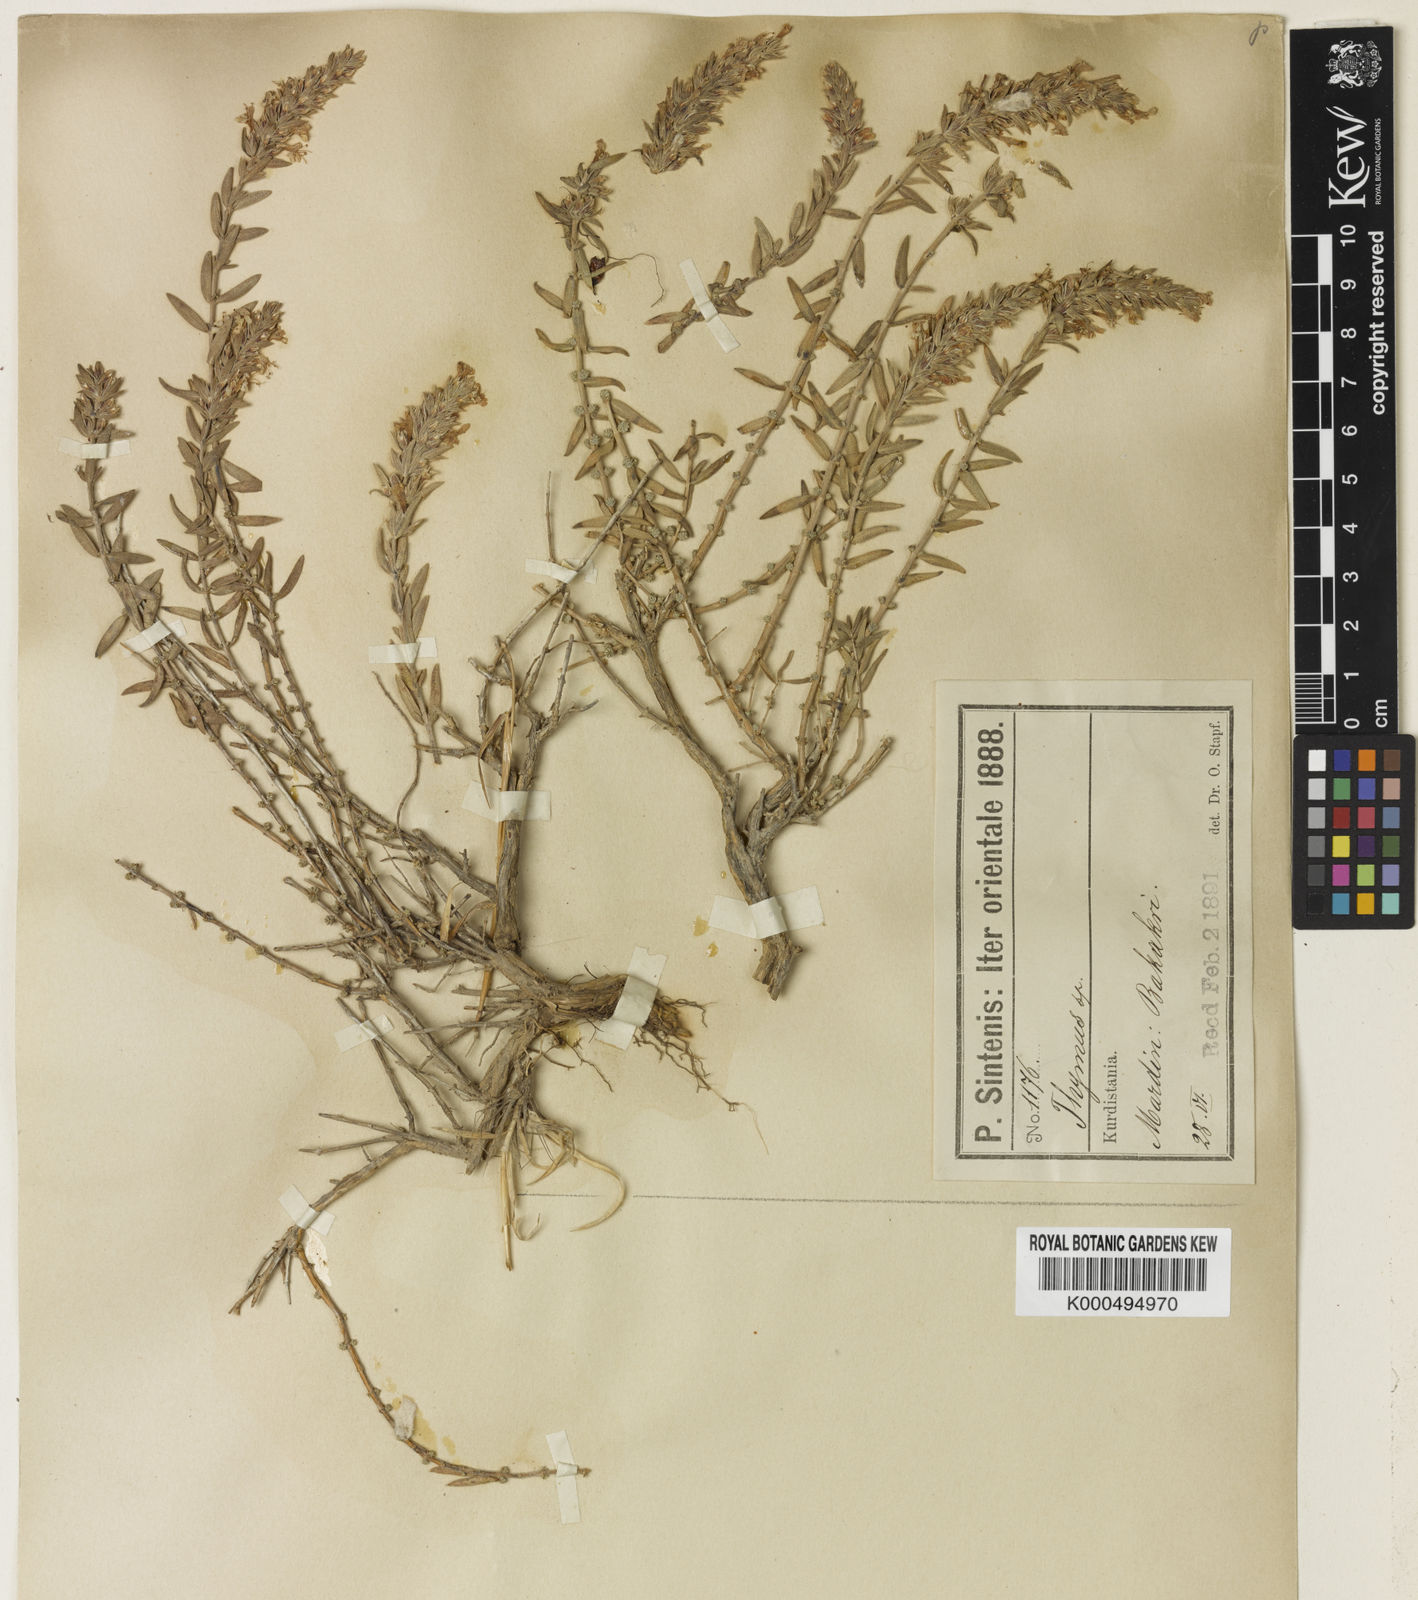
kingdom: Plantae
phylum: Tracheophyta
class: Magnoliopsida
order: Lamiales
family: Lamiaceae
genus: Thymbra
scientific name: Thymbra sintenisii
